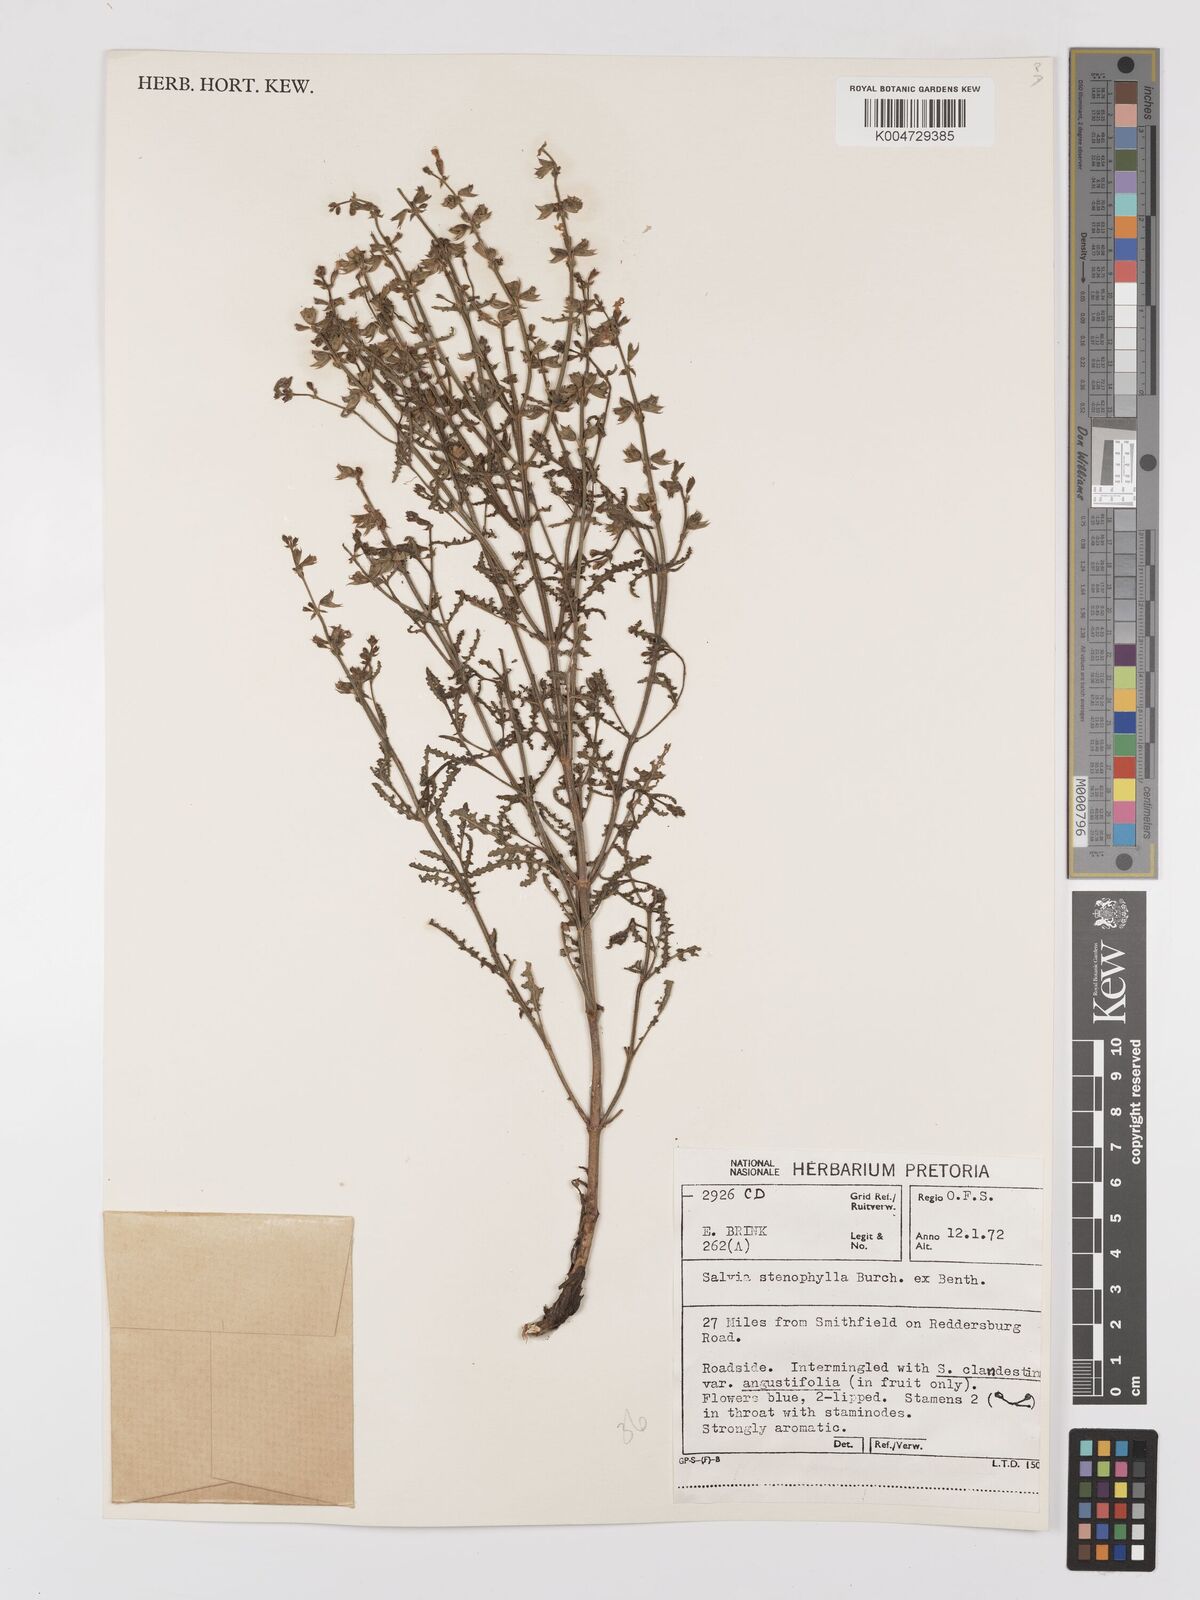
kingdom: Plantae
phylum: Tracheophyta
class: Magnoliopsida
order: Lamiales
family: Lamiaceae
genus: Salvia
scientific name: Salvia stenophylla
